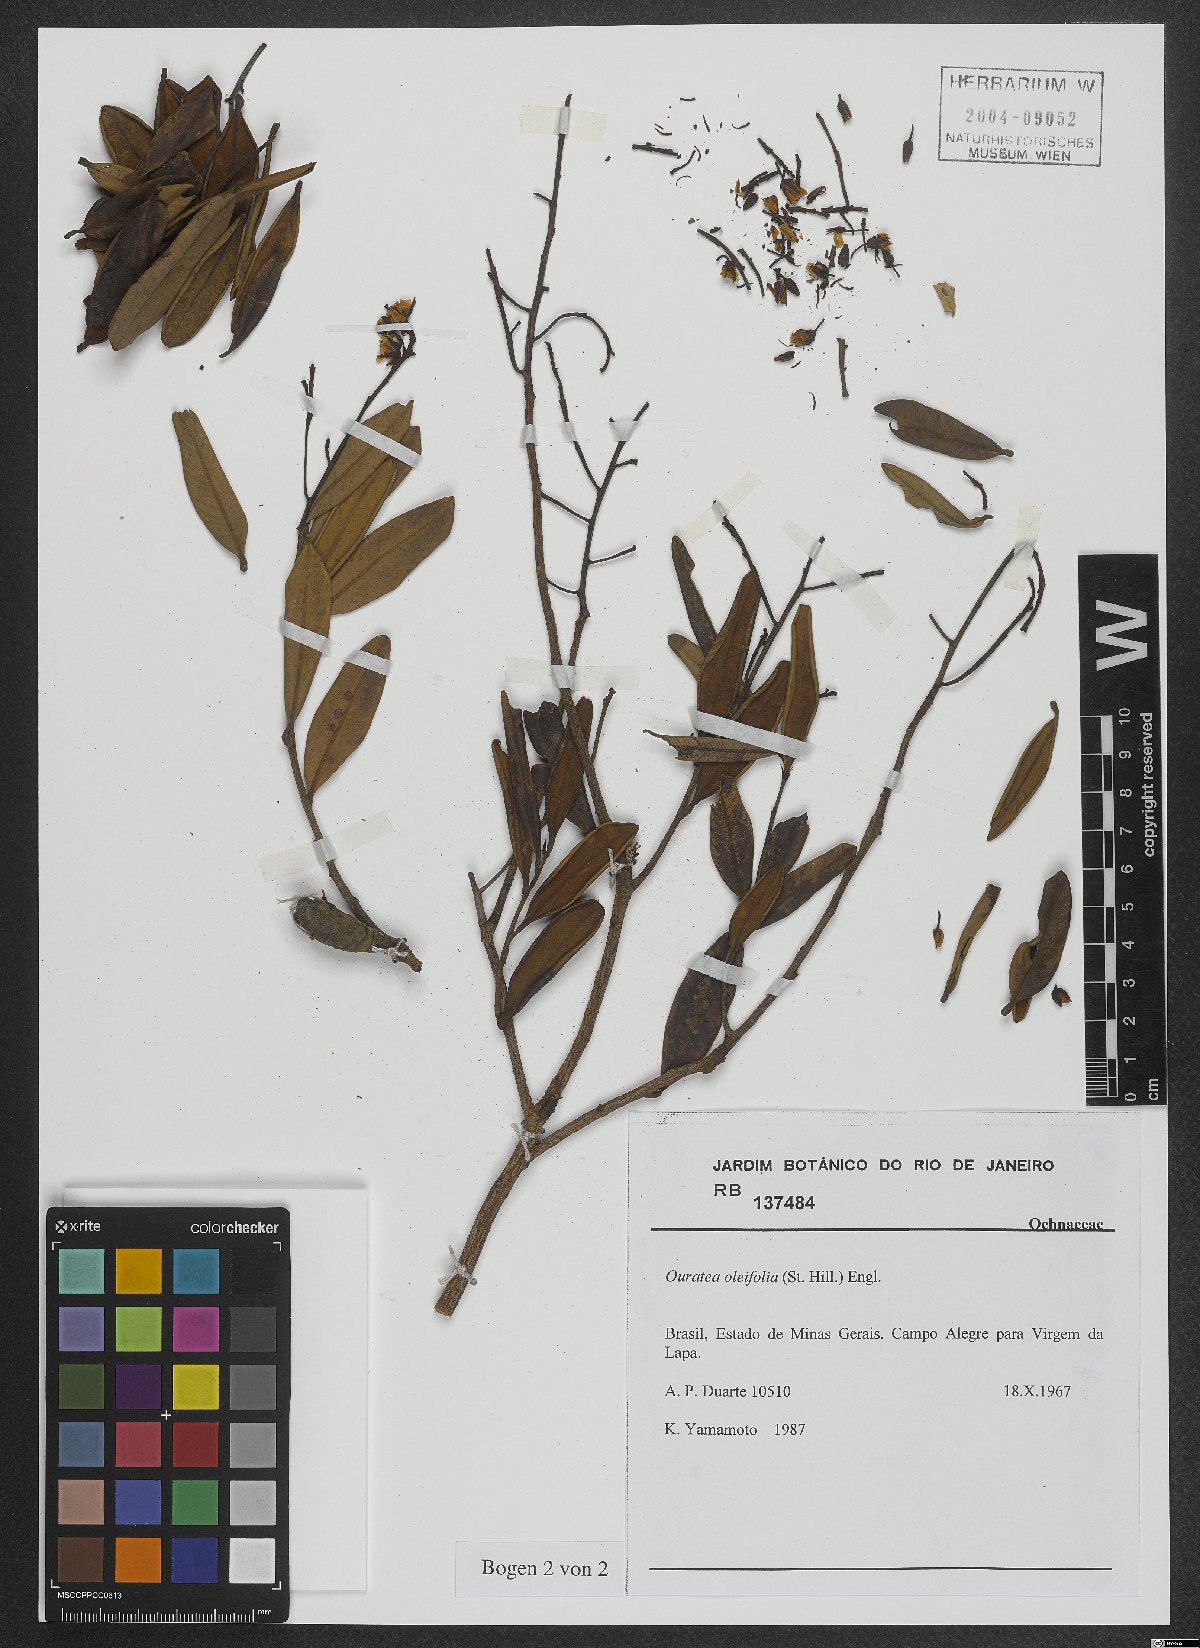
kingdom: Plantae
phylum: Tracheophyta
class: Magnoliopsida
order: Malpighiales
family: Ochnaceae
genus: Ouratea
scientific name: Ouratea oleifolia
